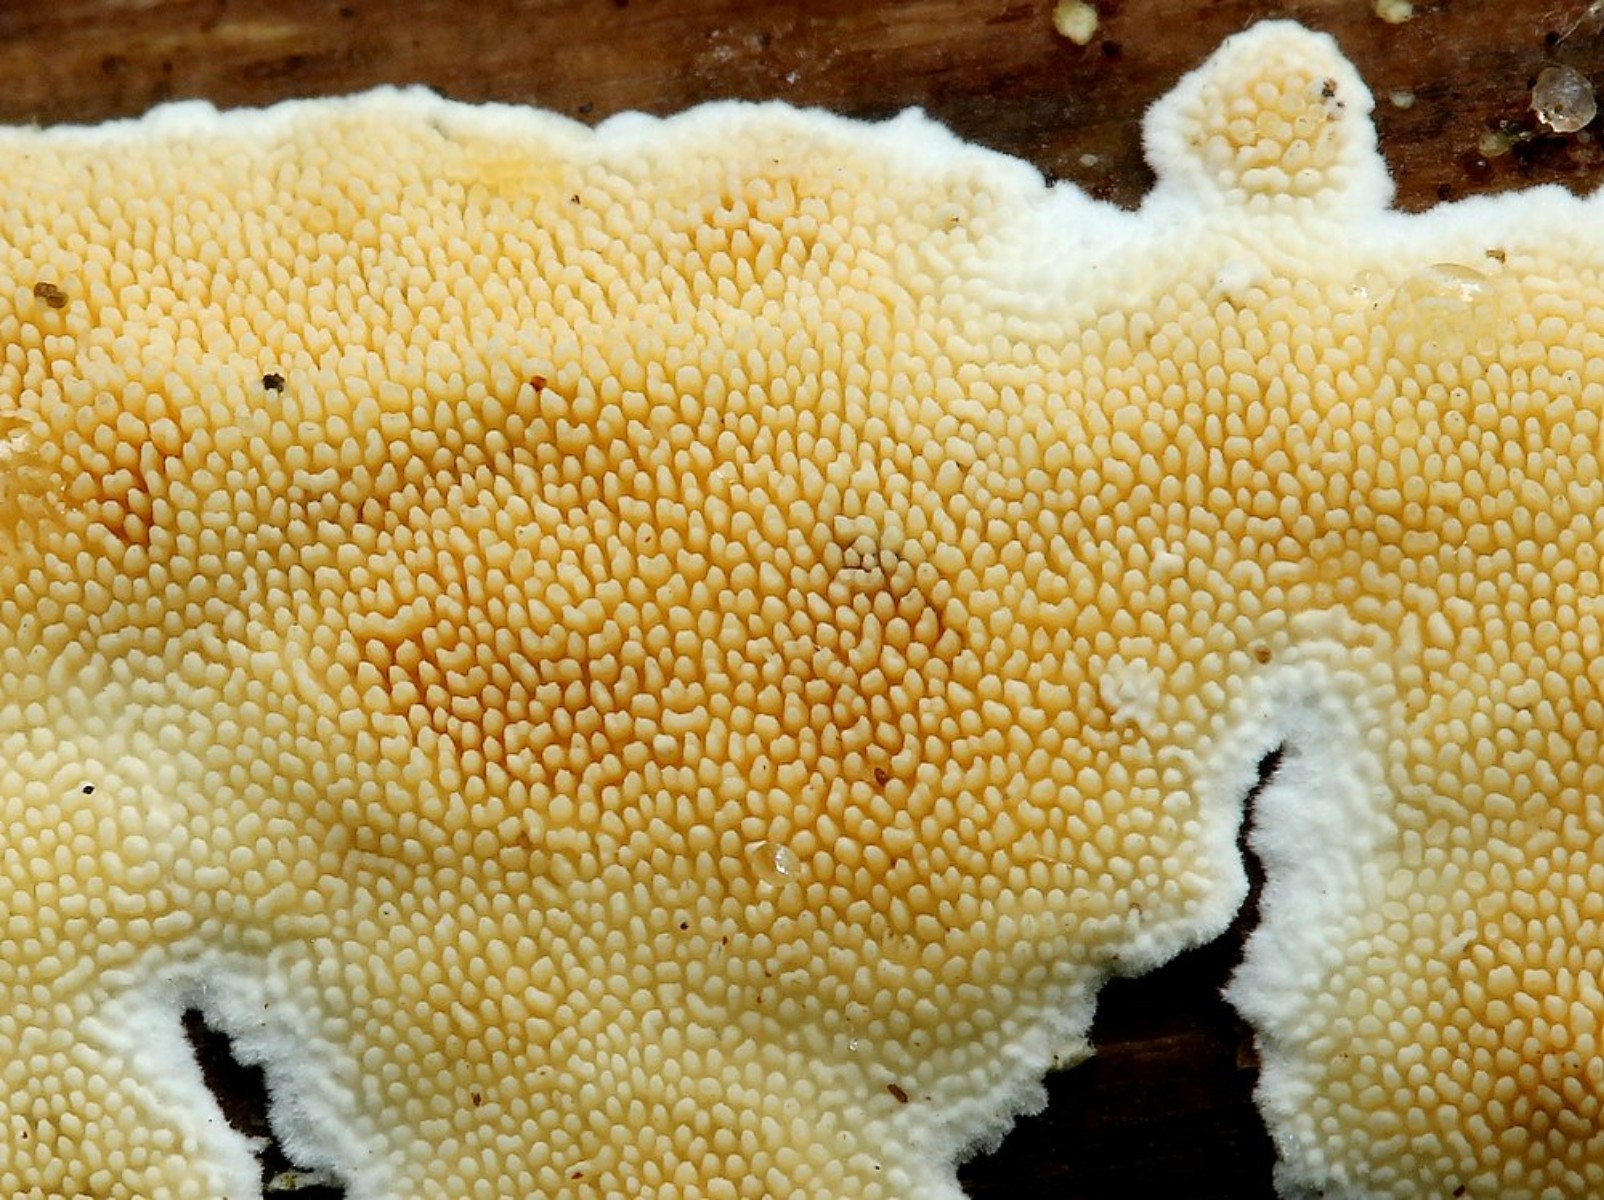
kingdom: Fungi
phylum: Basidiomycota
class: Agaricomycetes
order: Polyporales
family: Steccherinaceae
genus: Steccherinum
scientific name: Steccherinum ochraceum
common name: almindelig skønpig
